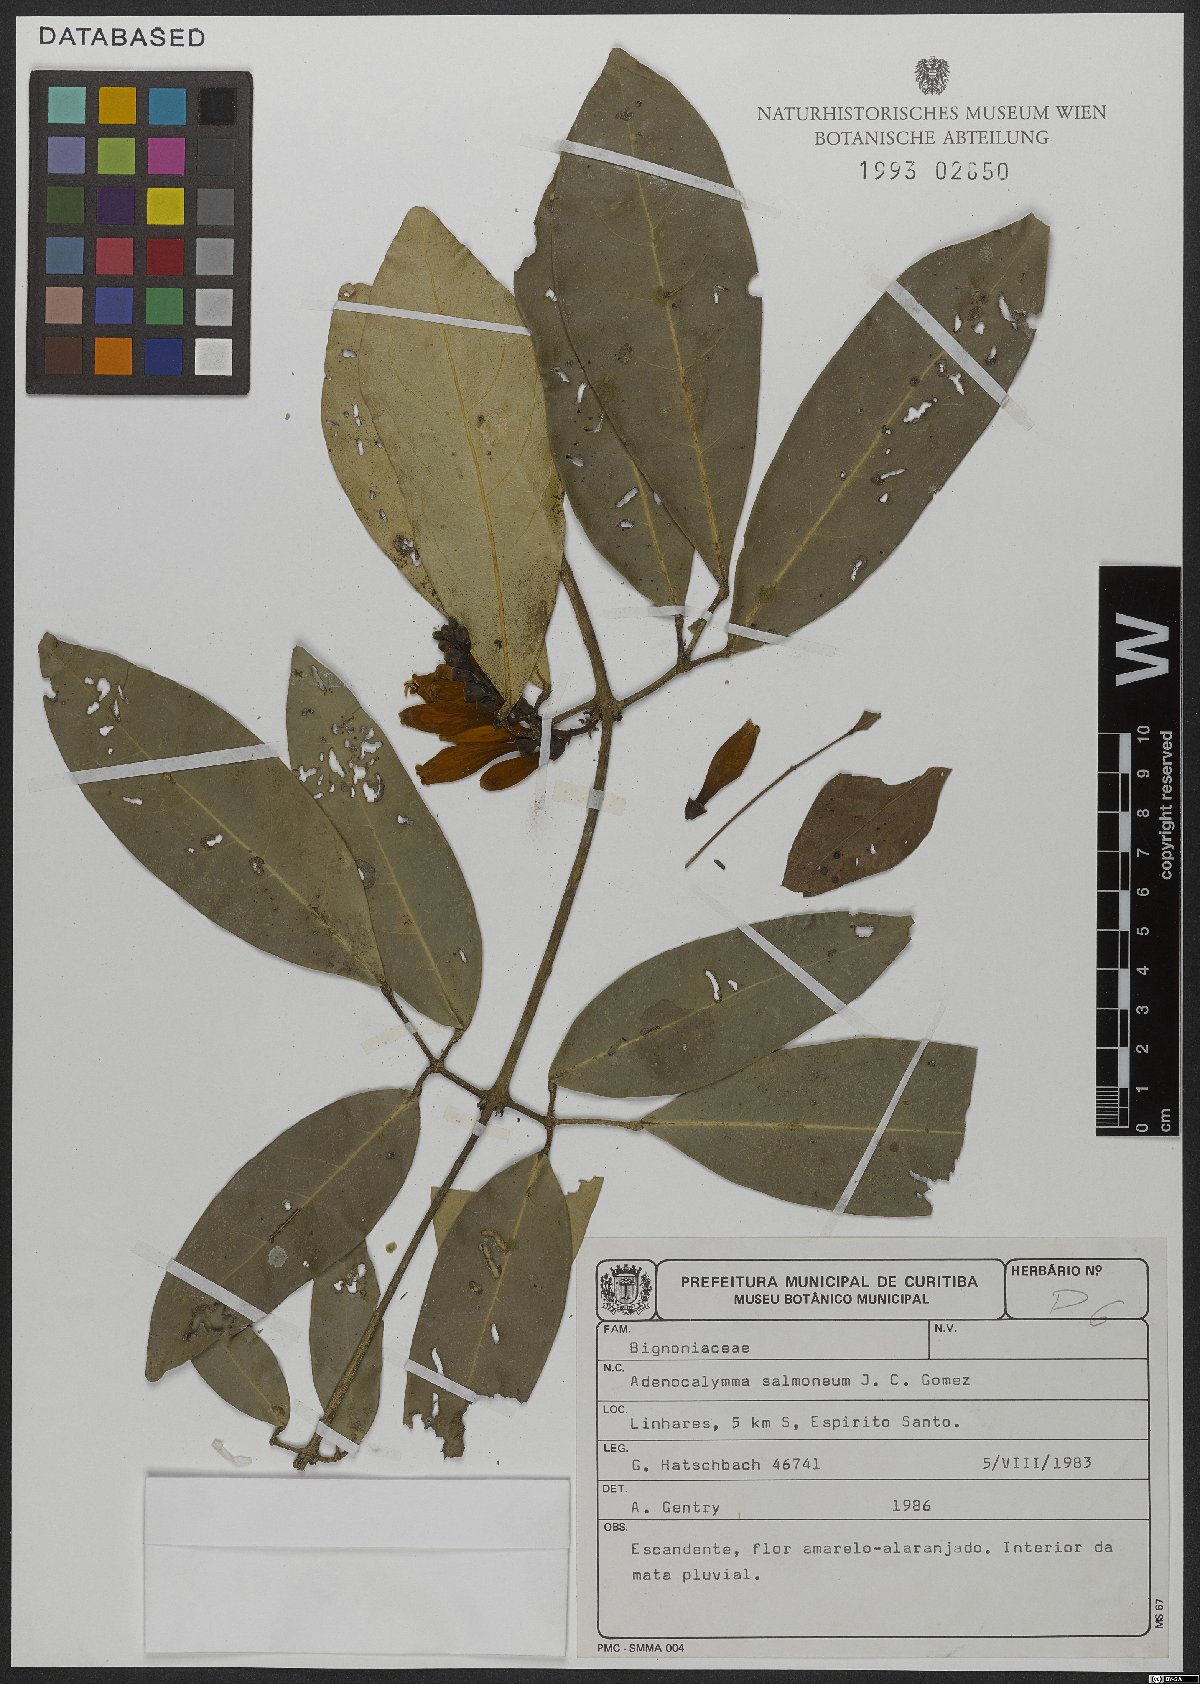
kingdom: Plantae
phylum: Tracheophyta
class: Magnoliopsida
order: Lamiales
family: Bignoniaceae
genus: Adenocalymma
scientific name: Adenocalymma salmoneum
